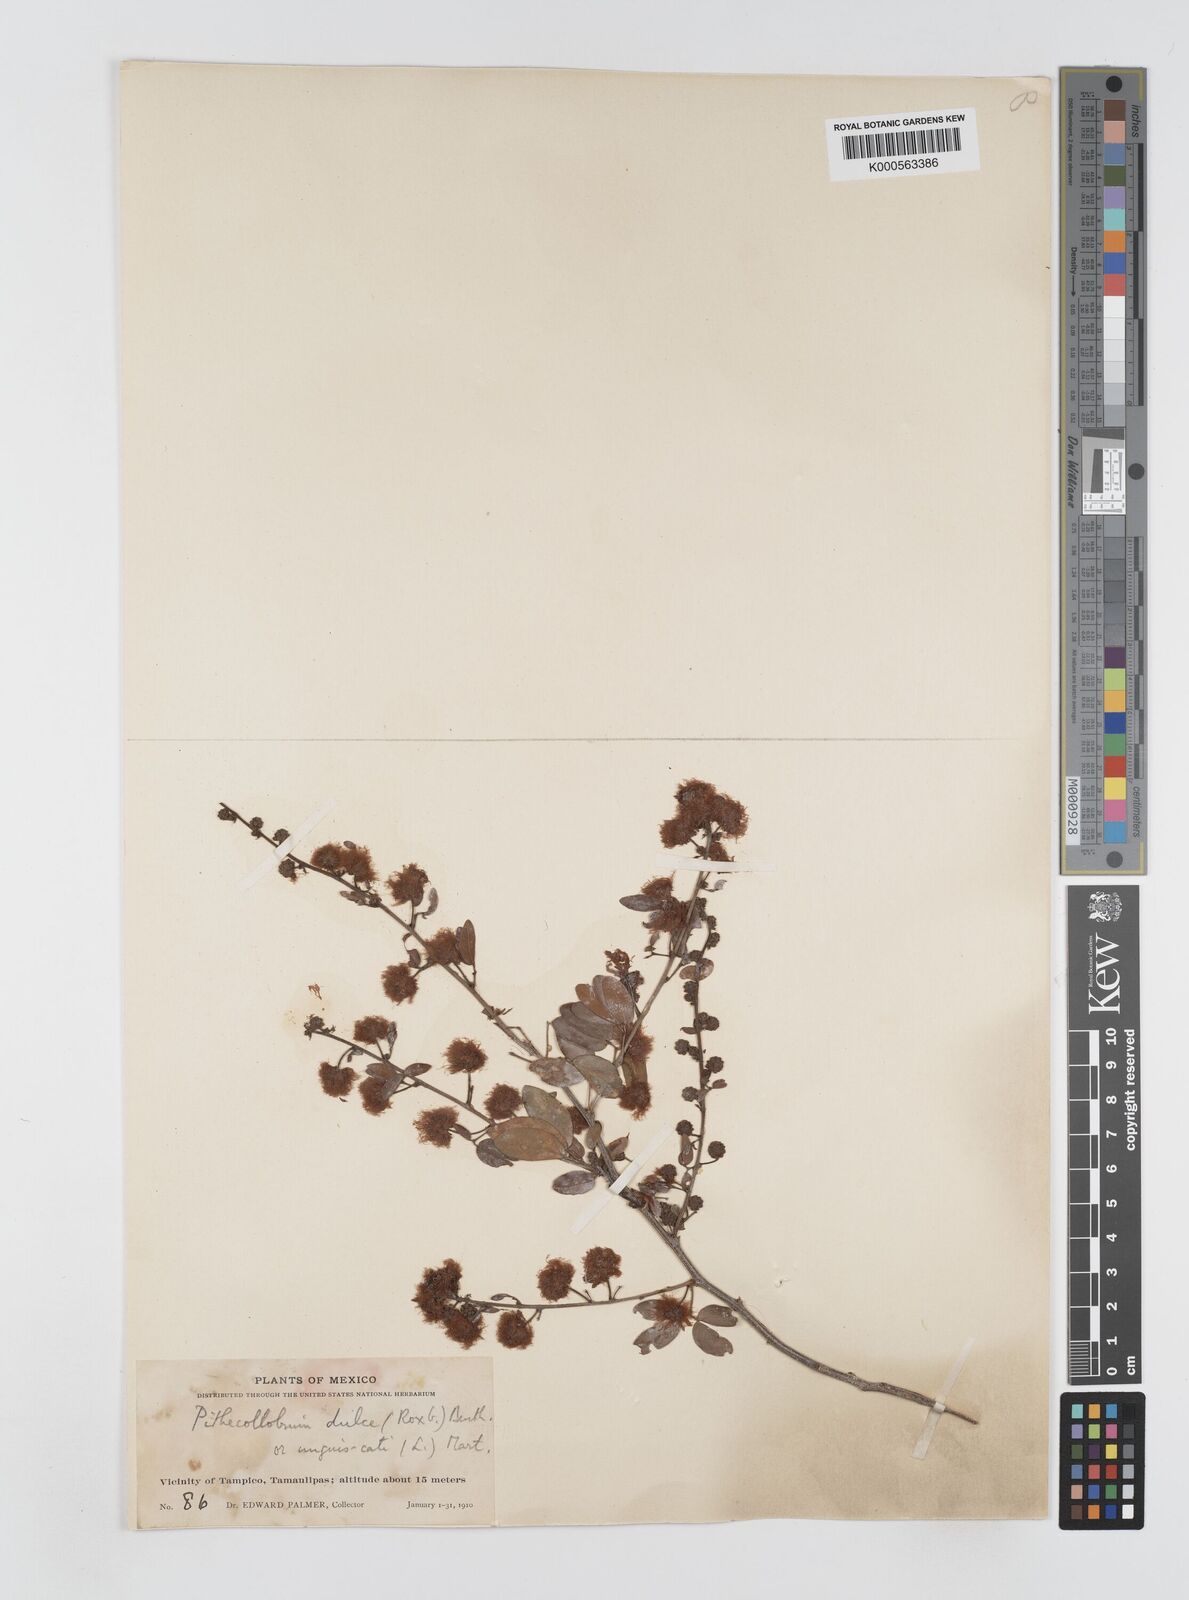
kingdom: Plantae
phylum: Tracheophyta
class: Magnoliopsida
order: Fabales
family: Fabaceae
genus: Pithecellobium
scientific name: Pithecellobium unguis-cati
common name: Cat's-claw
